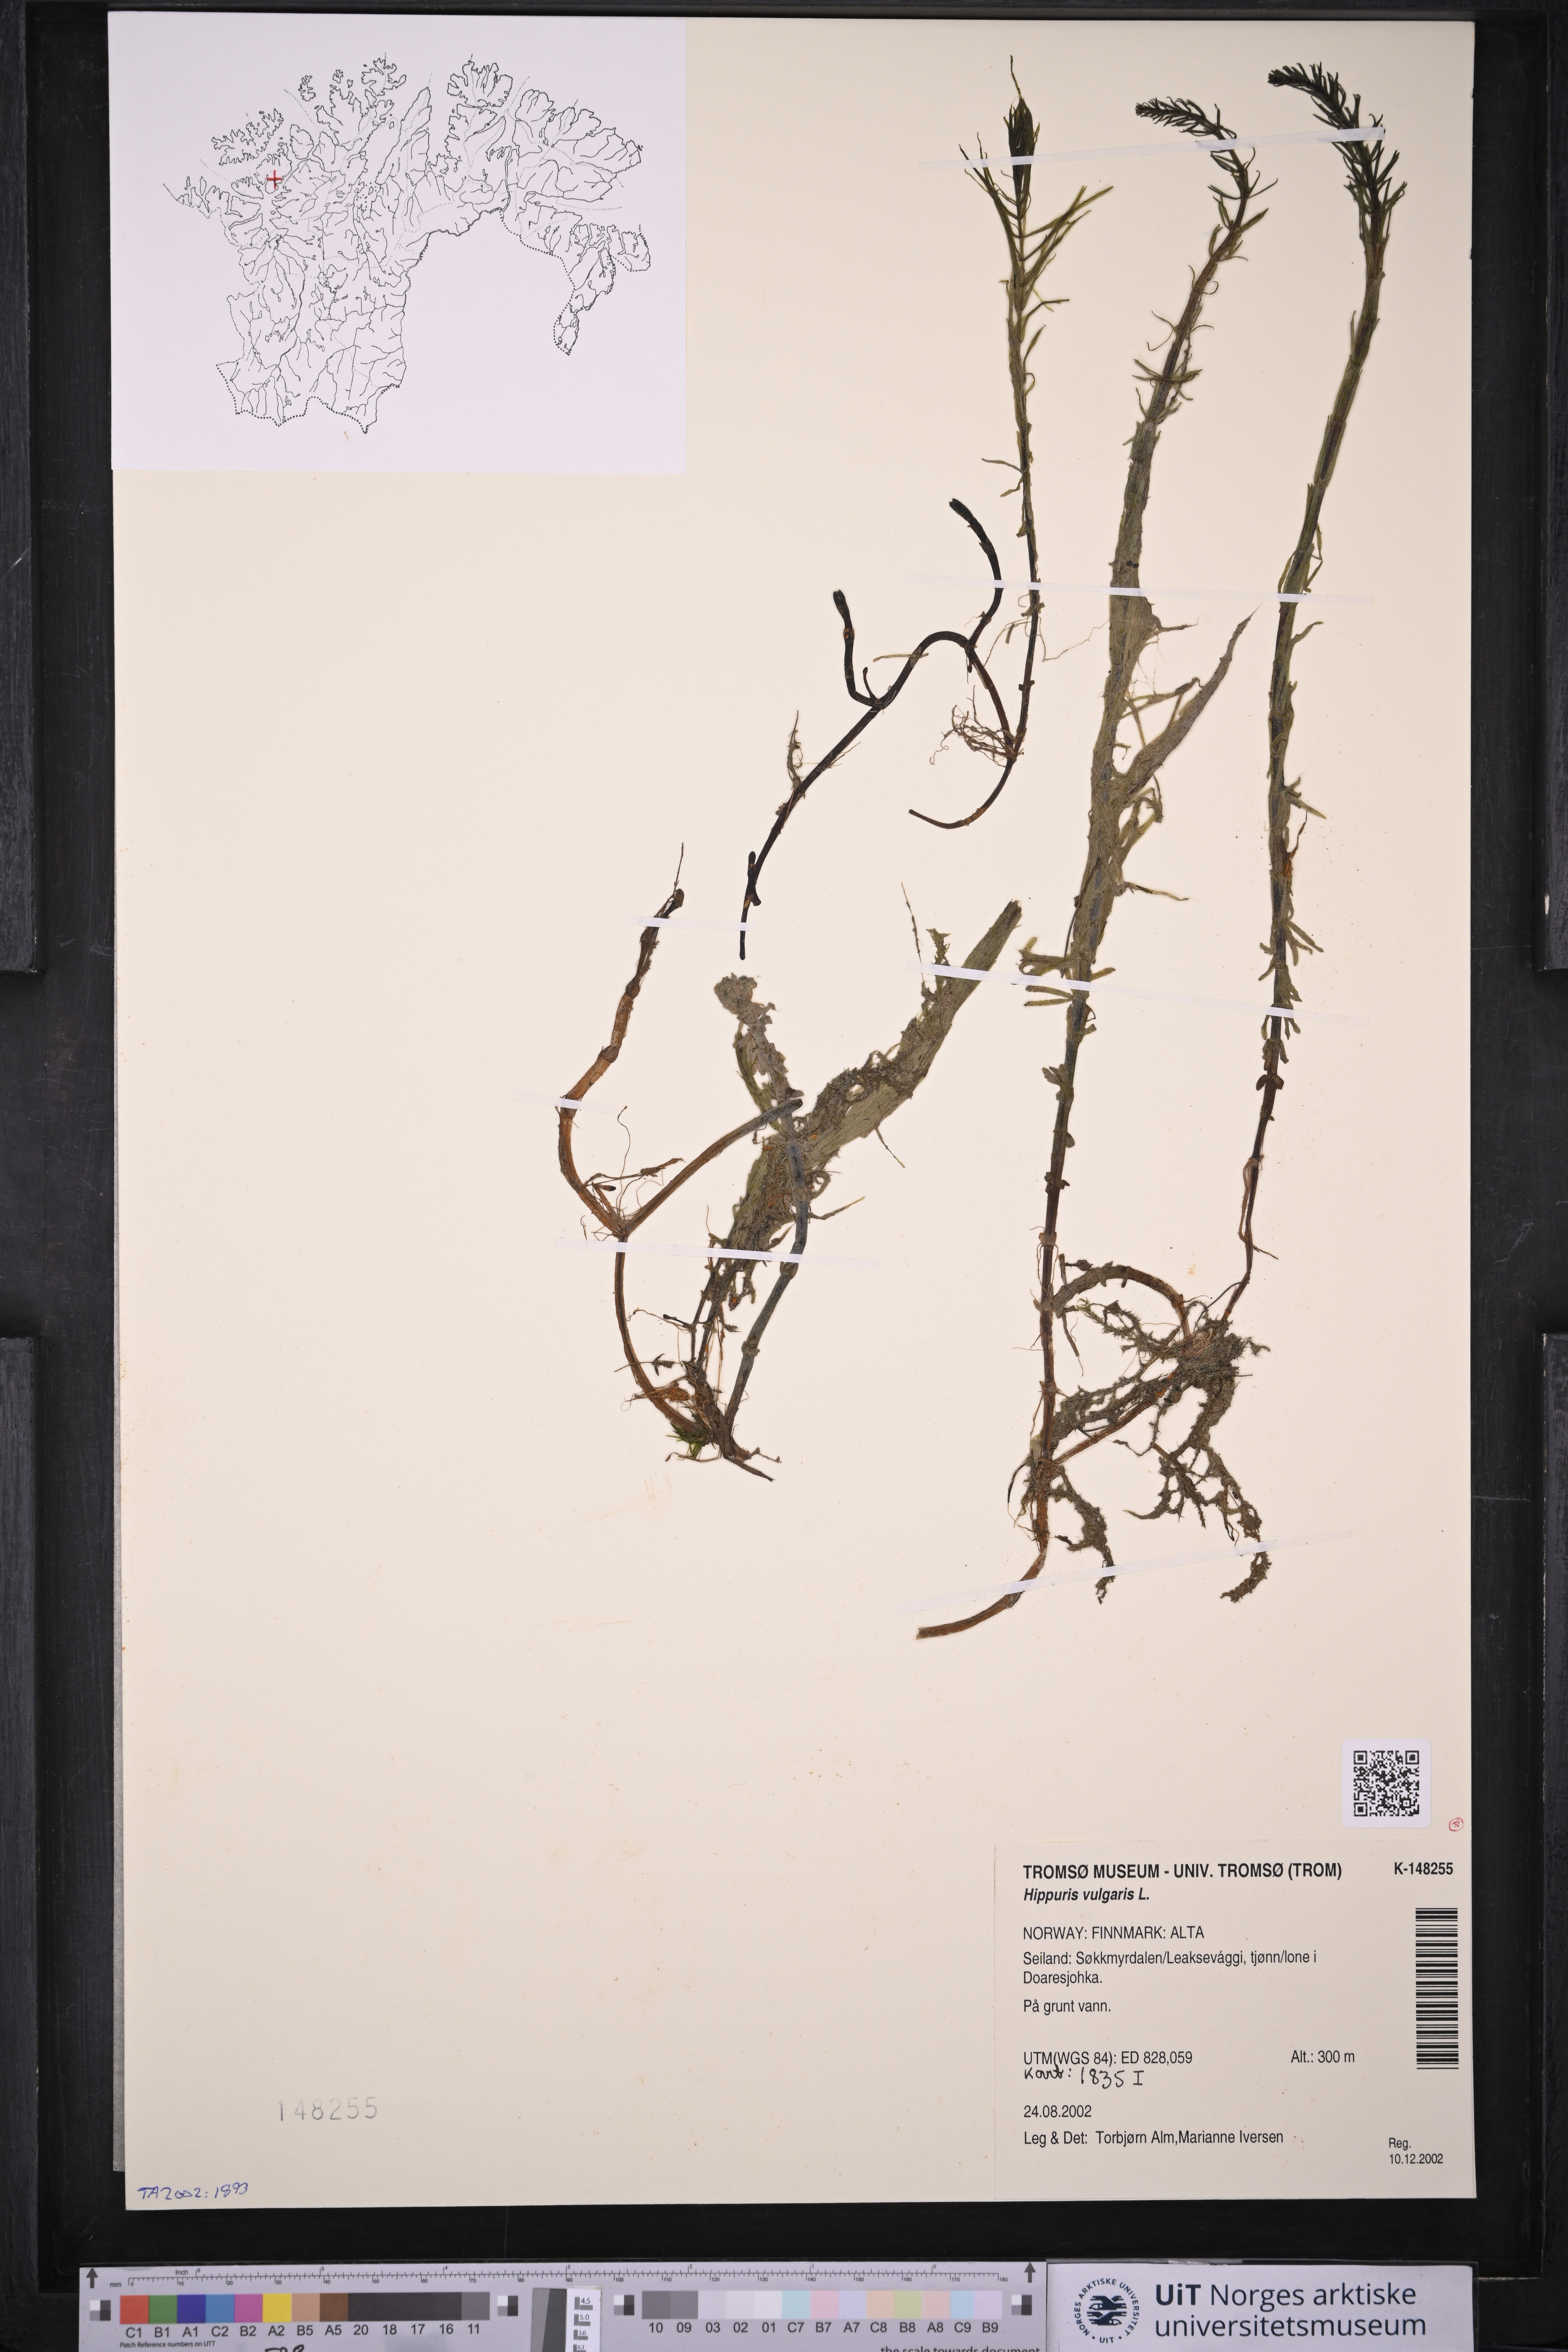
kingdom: Plantae
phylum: Tracheophyta
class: Magnoliopsida
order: Lamiales
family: Plantaginaceae
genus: Hippuris
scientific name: Hippuris vulgaris
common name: Mare's-tail
